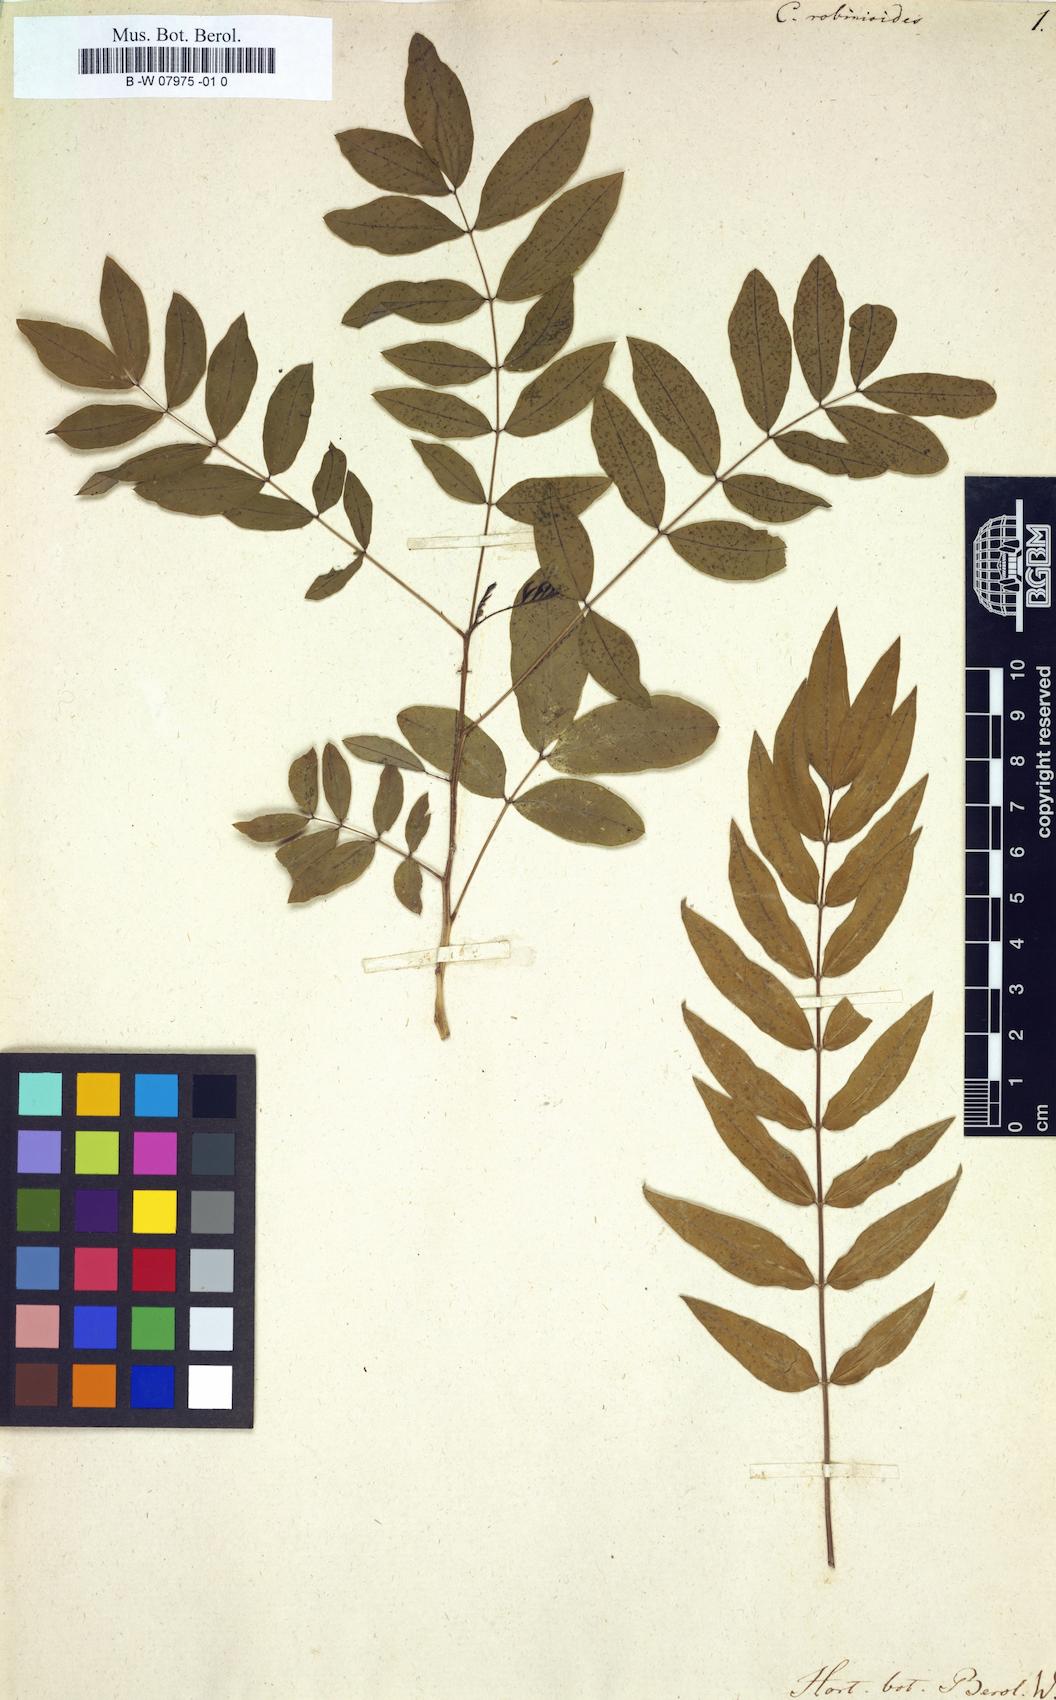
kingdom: Plantae
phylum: Tracheophyta
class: Magnoliopsida
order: Fabales
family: Fabaceae
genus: Senna
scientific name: Senna sophera
